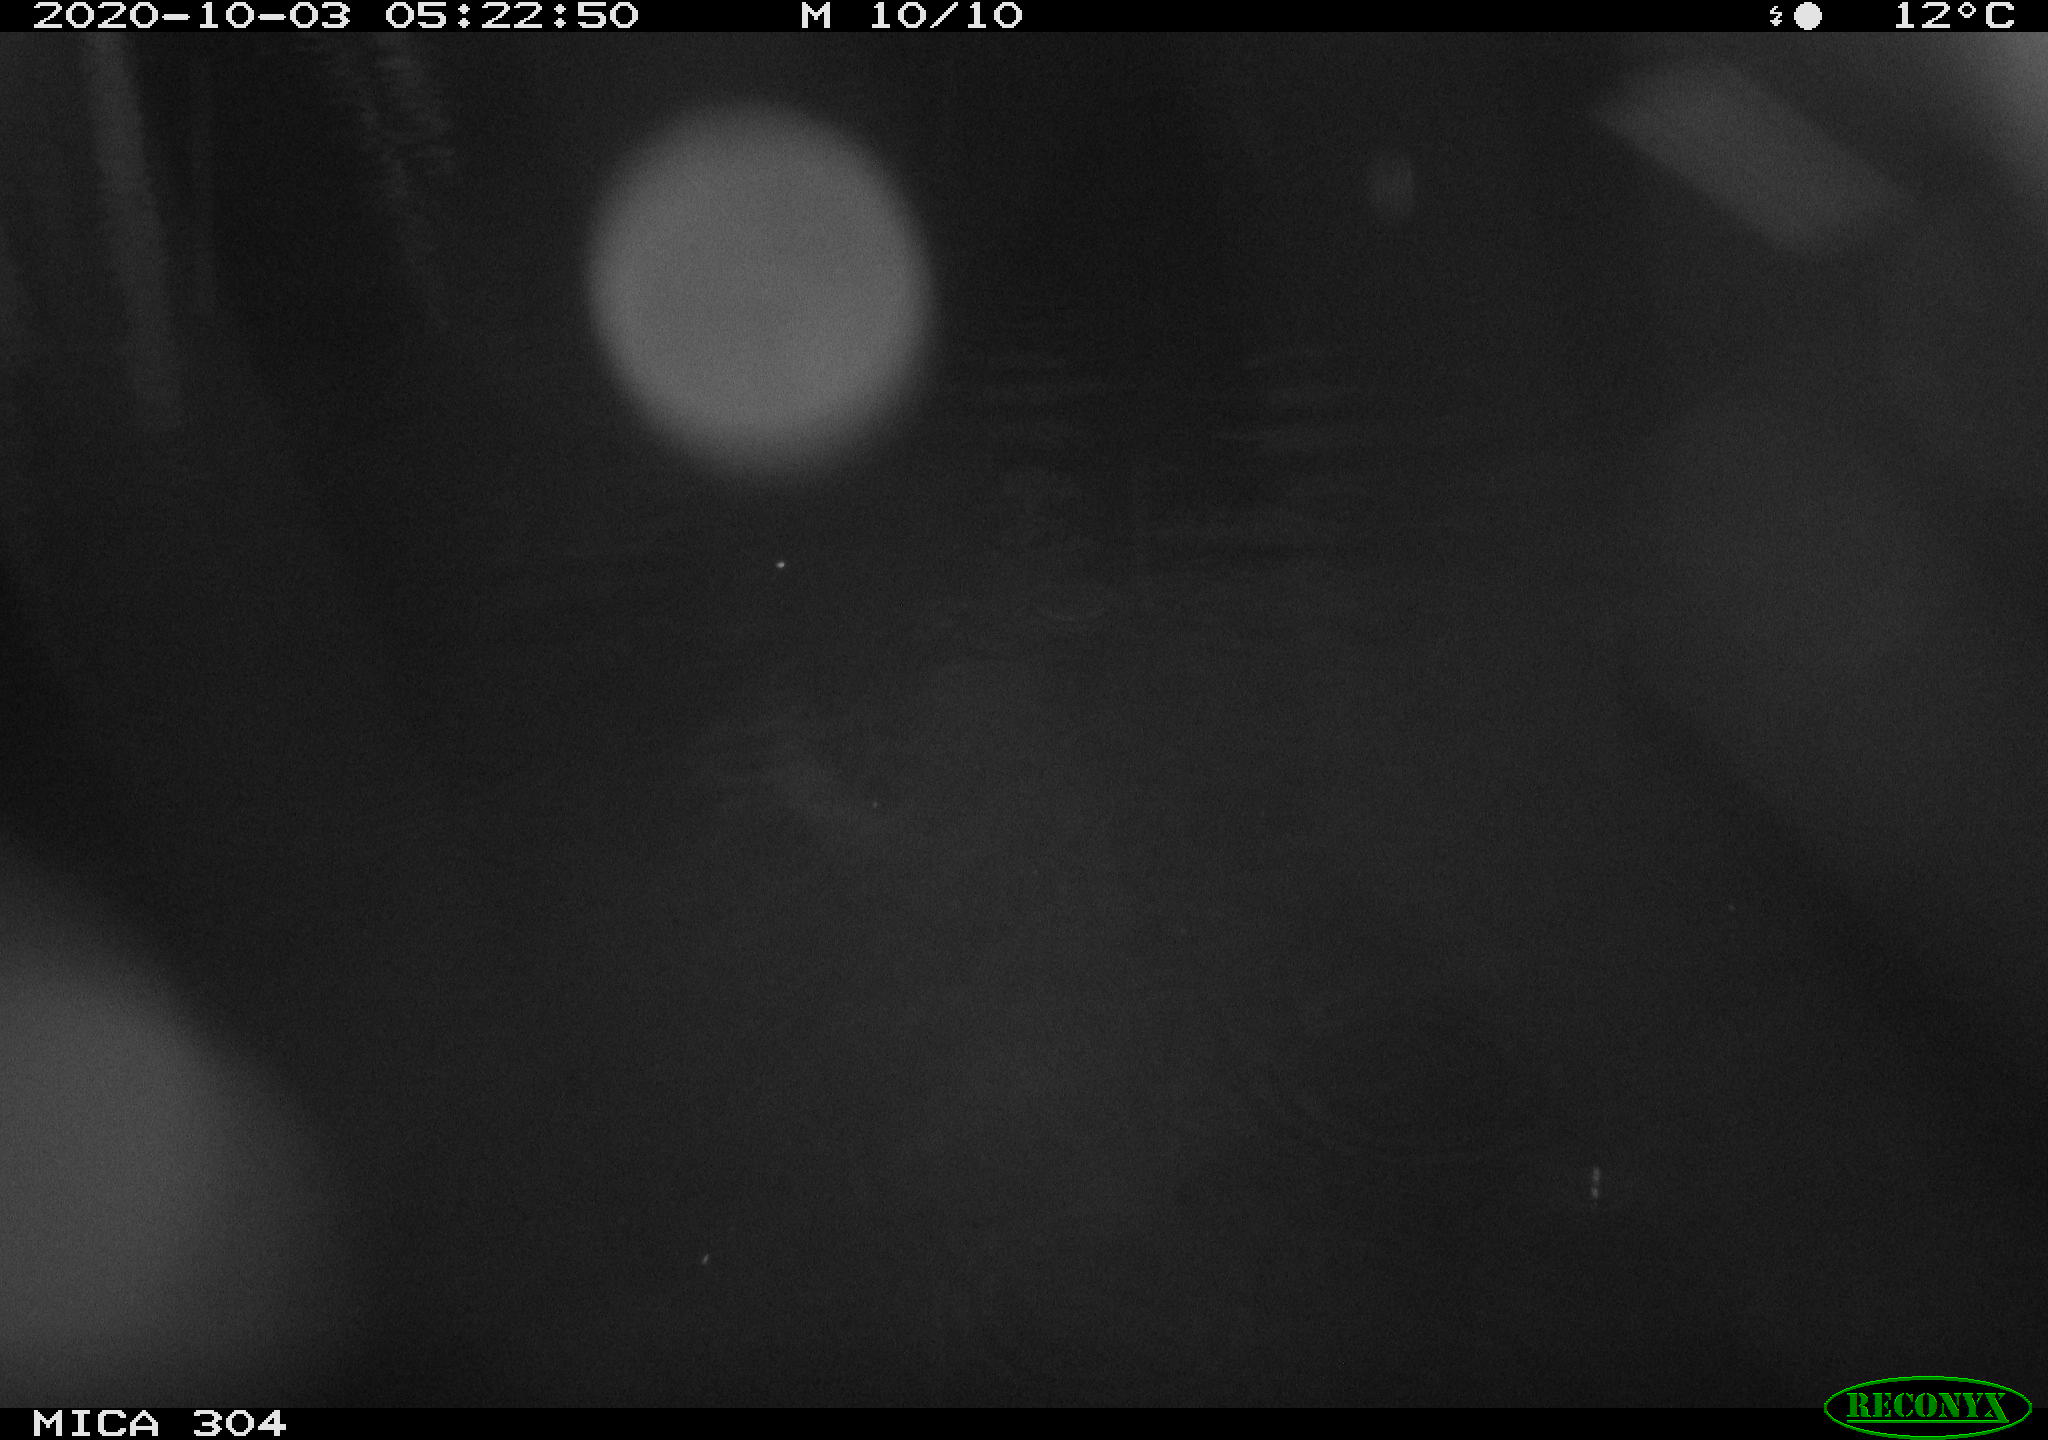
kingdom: Animalia
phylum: Chordata
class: Mammalia
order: Rodentia
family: Cricetidae
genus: Ondatra
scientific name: Ondatra zibethicus
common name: Muskrat
